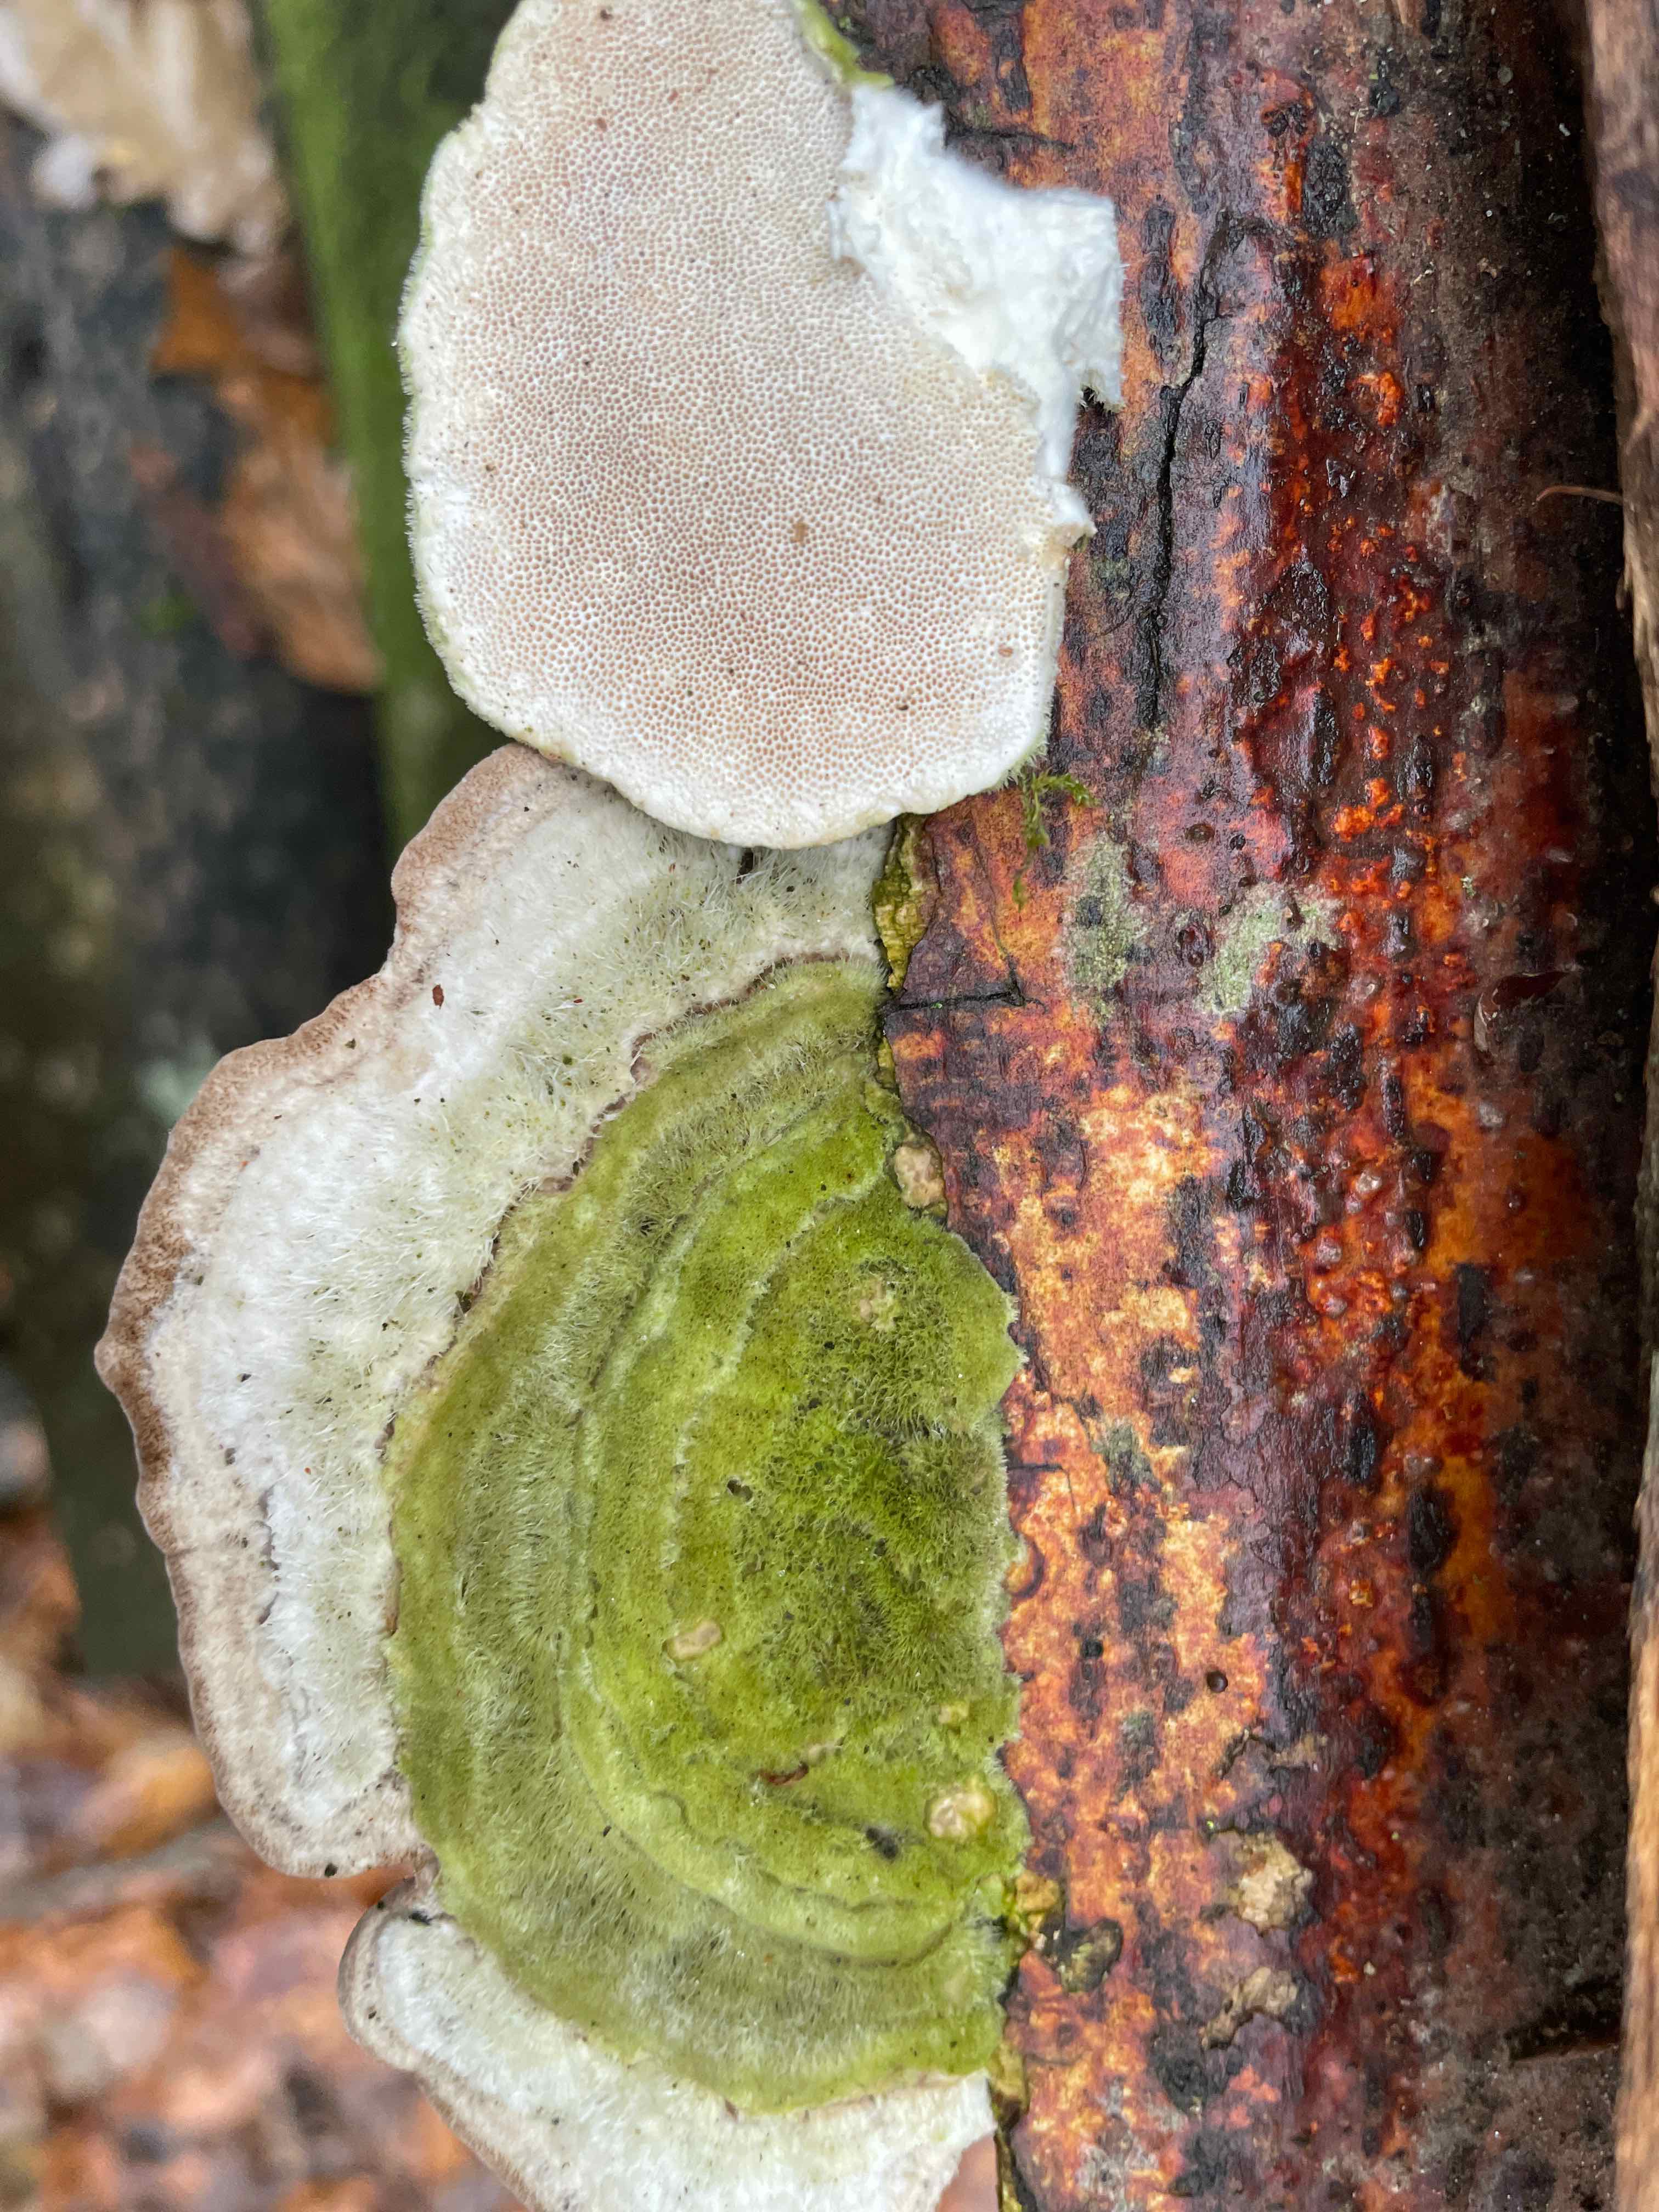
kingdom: Fungi
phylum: Basidiomycota
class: Agaricomycetes
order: Polyporales
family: Polyporaceae
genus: Trametes
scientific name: Trametes hirsuta
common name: håret læderporesvamp
